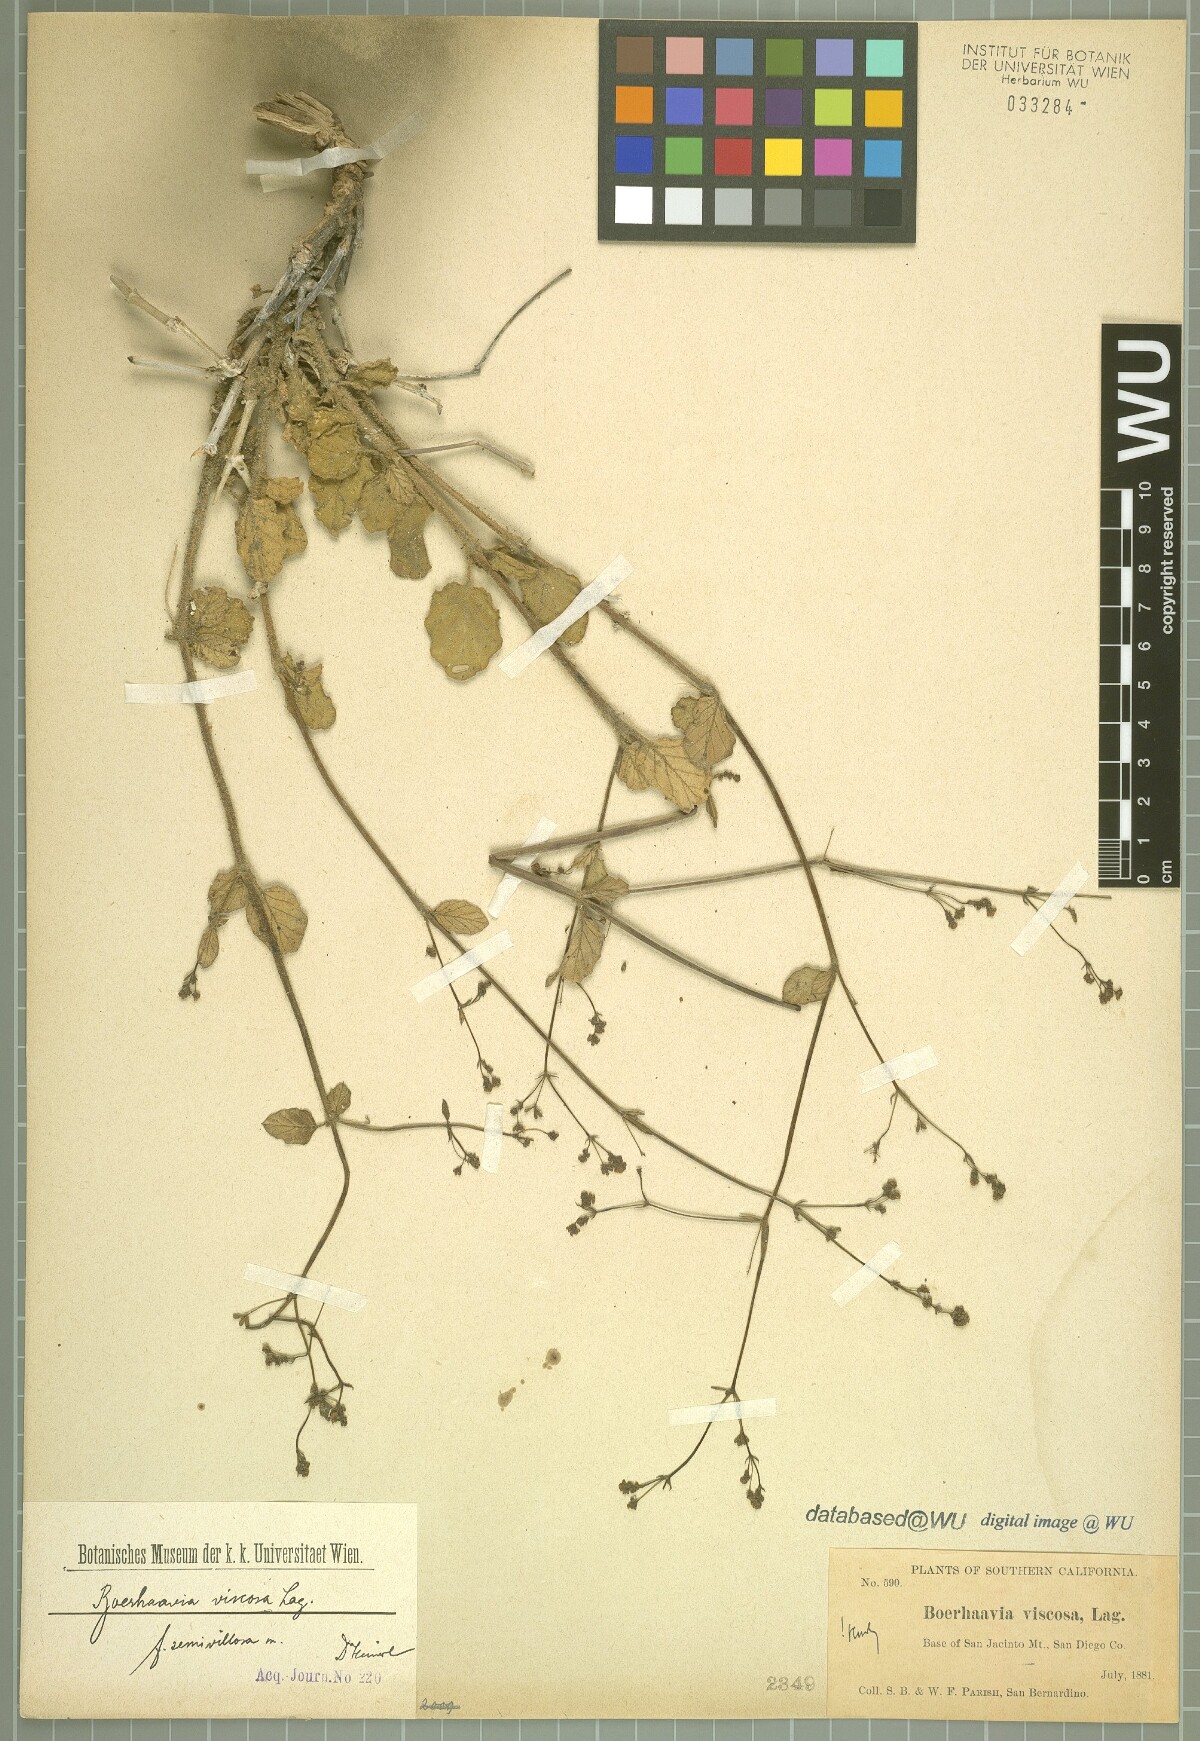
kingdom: Plantae
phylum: Tracheophyta
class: Magnoliopsida
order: Caryophyllales
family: Nyctaginaceae
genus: Boerhavia
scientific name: Boerhavia coccinea
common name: Scarlet spiderling
